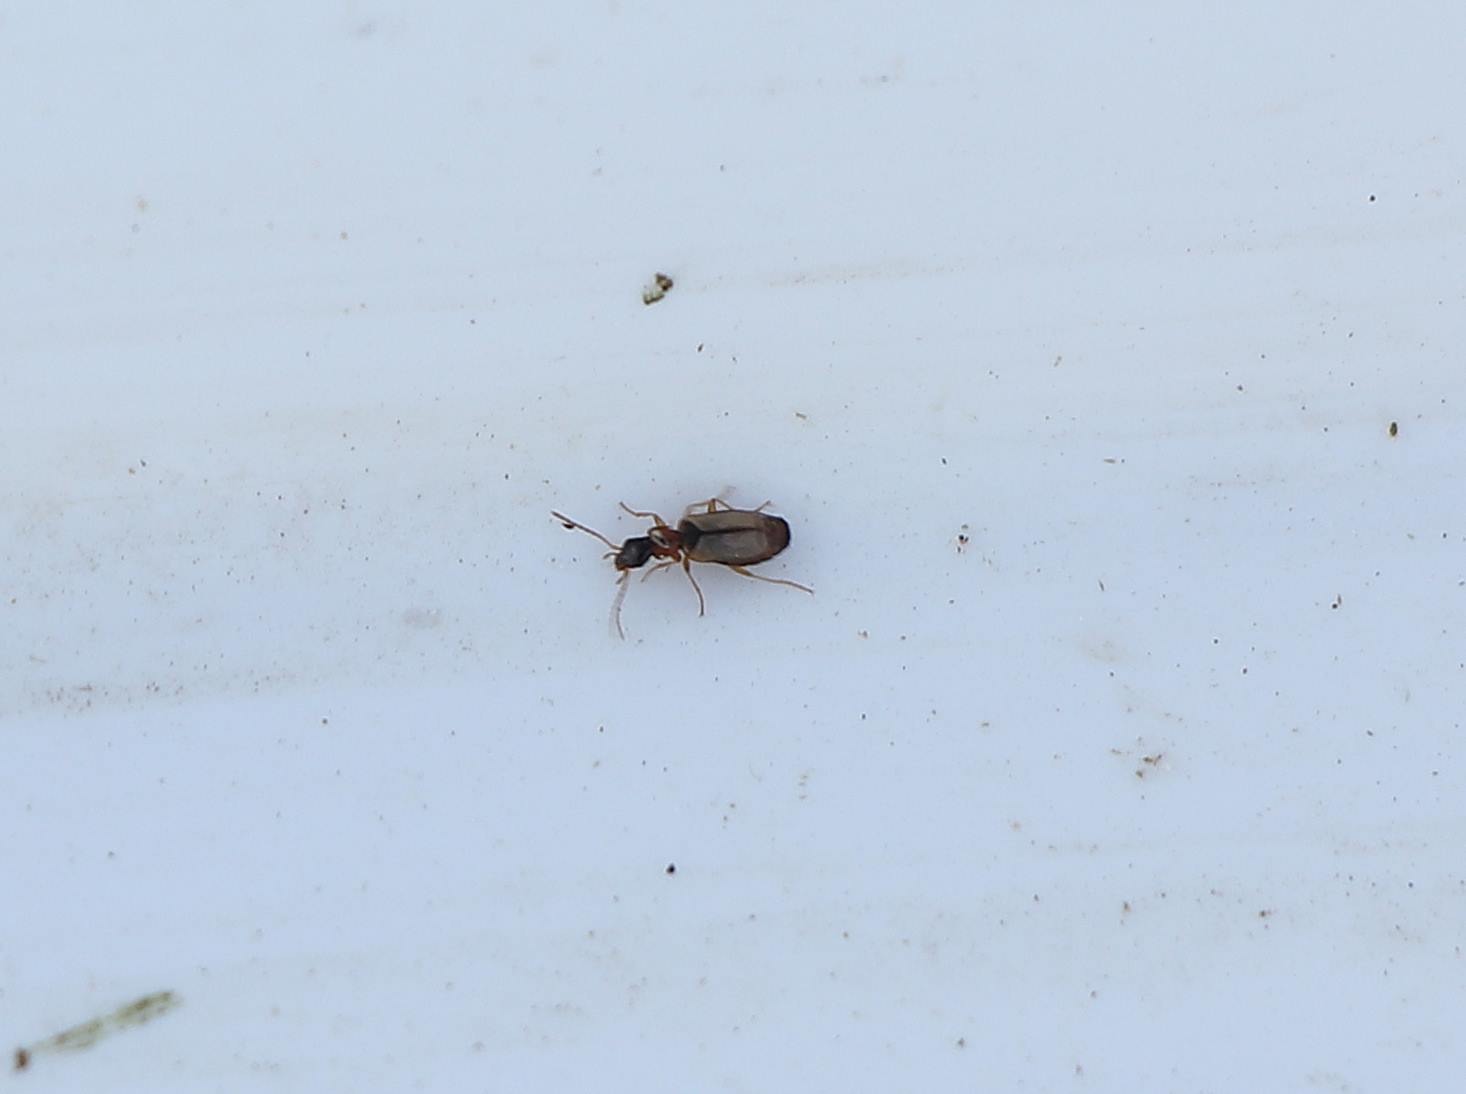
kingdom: Animalia
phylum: Arthropoda
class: Insecta
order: Coleoptera
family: Carabidae
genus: Philorhizus
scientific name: Philorhizus melanocephalus
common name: Bleggul sivløber
